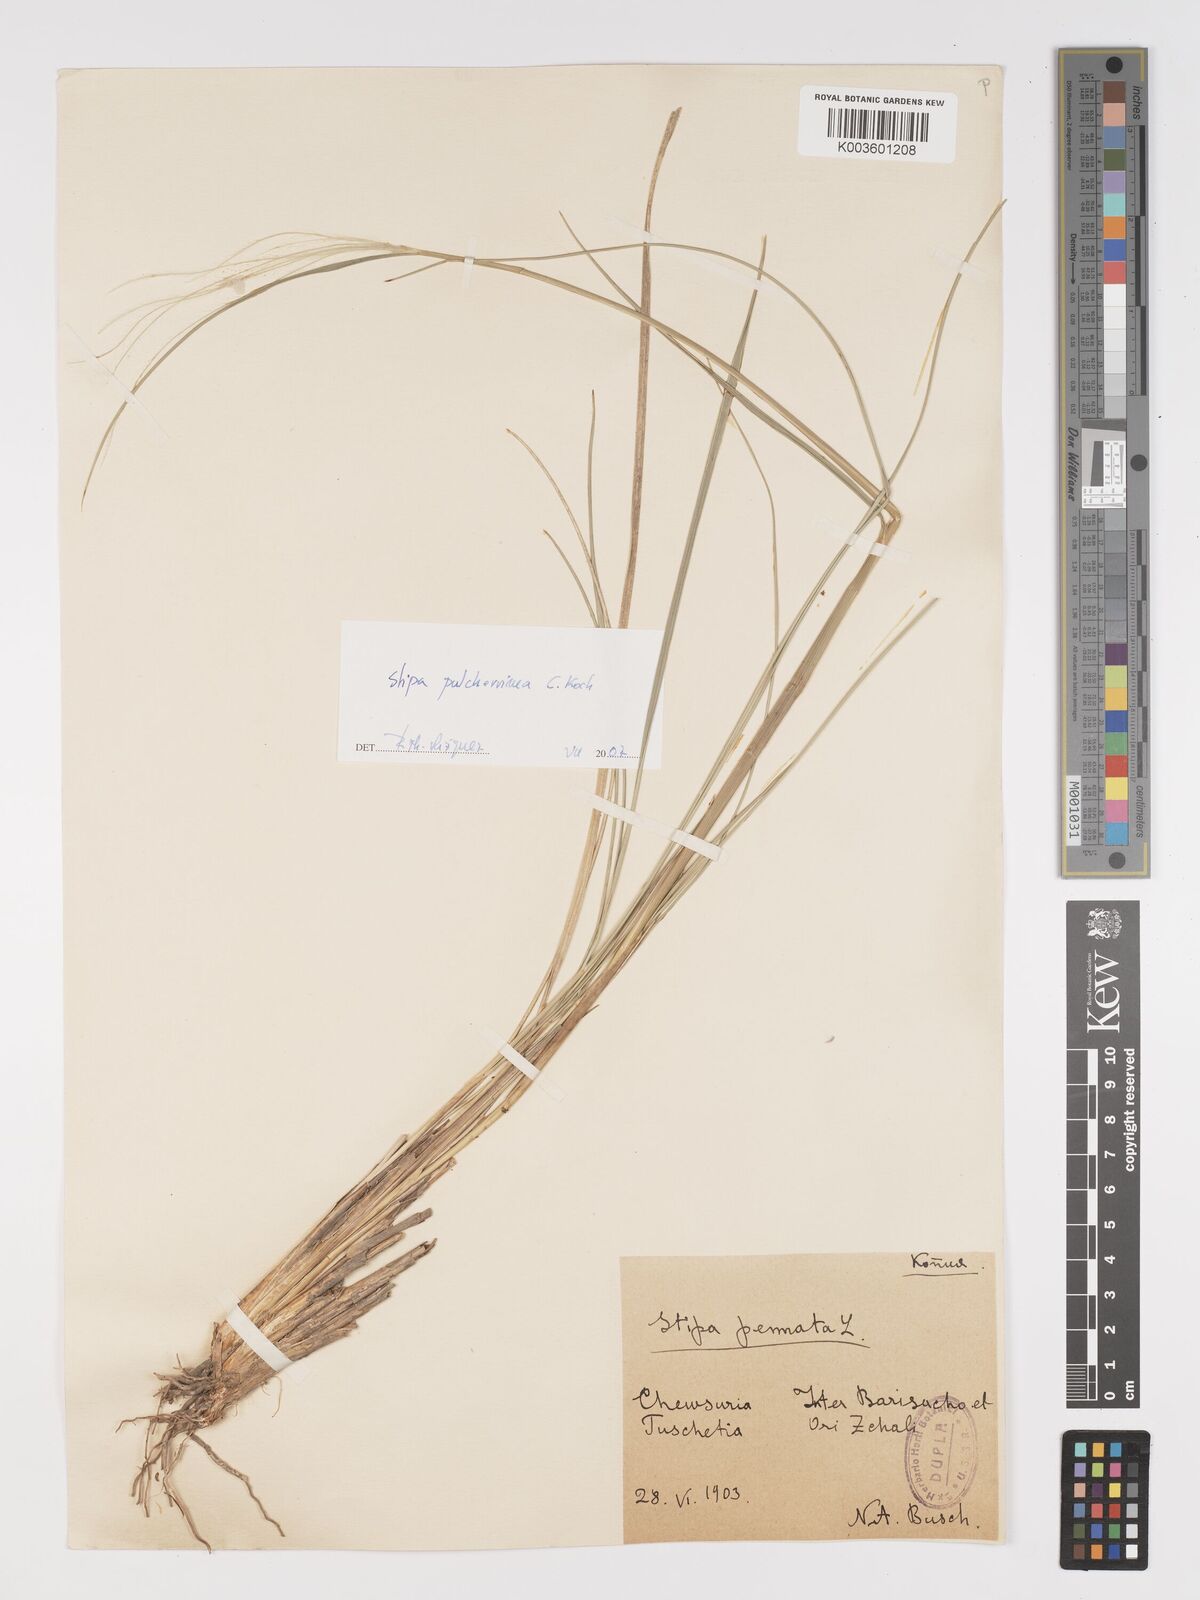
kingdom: Plantae
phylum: Tracheophyta
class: Liliopsida
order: Poales
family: Poaceae
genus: Stipa
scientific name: Stipa pulcherrima
